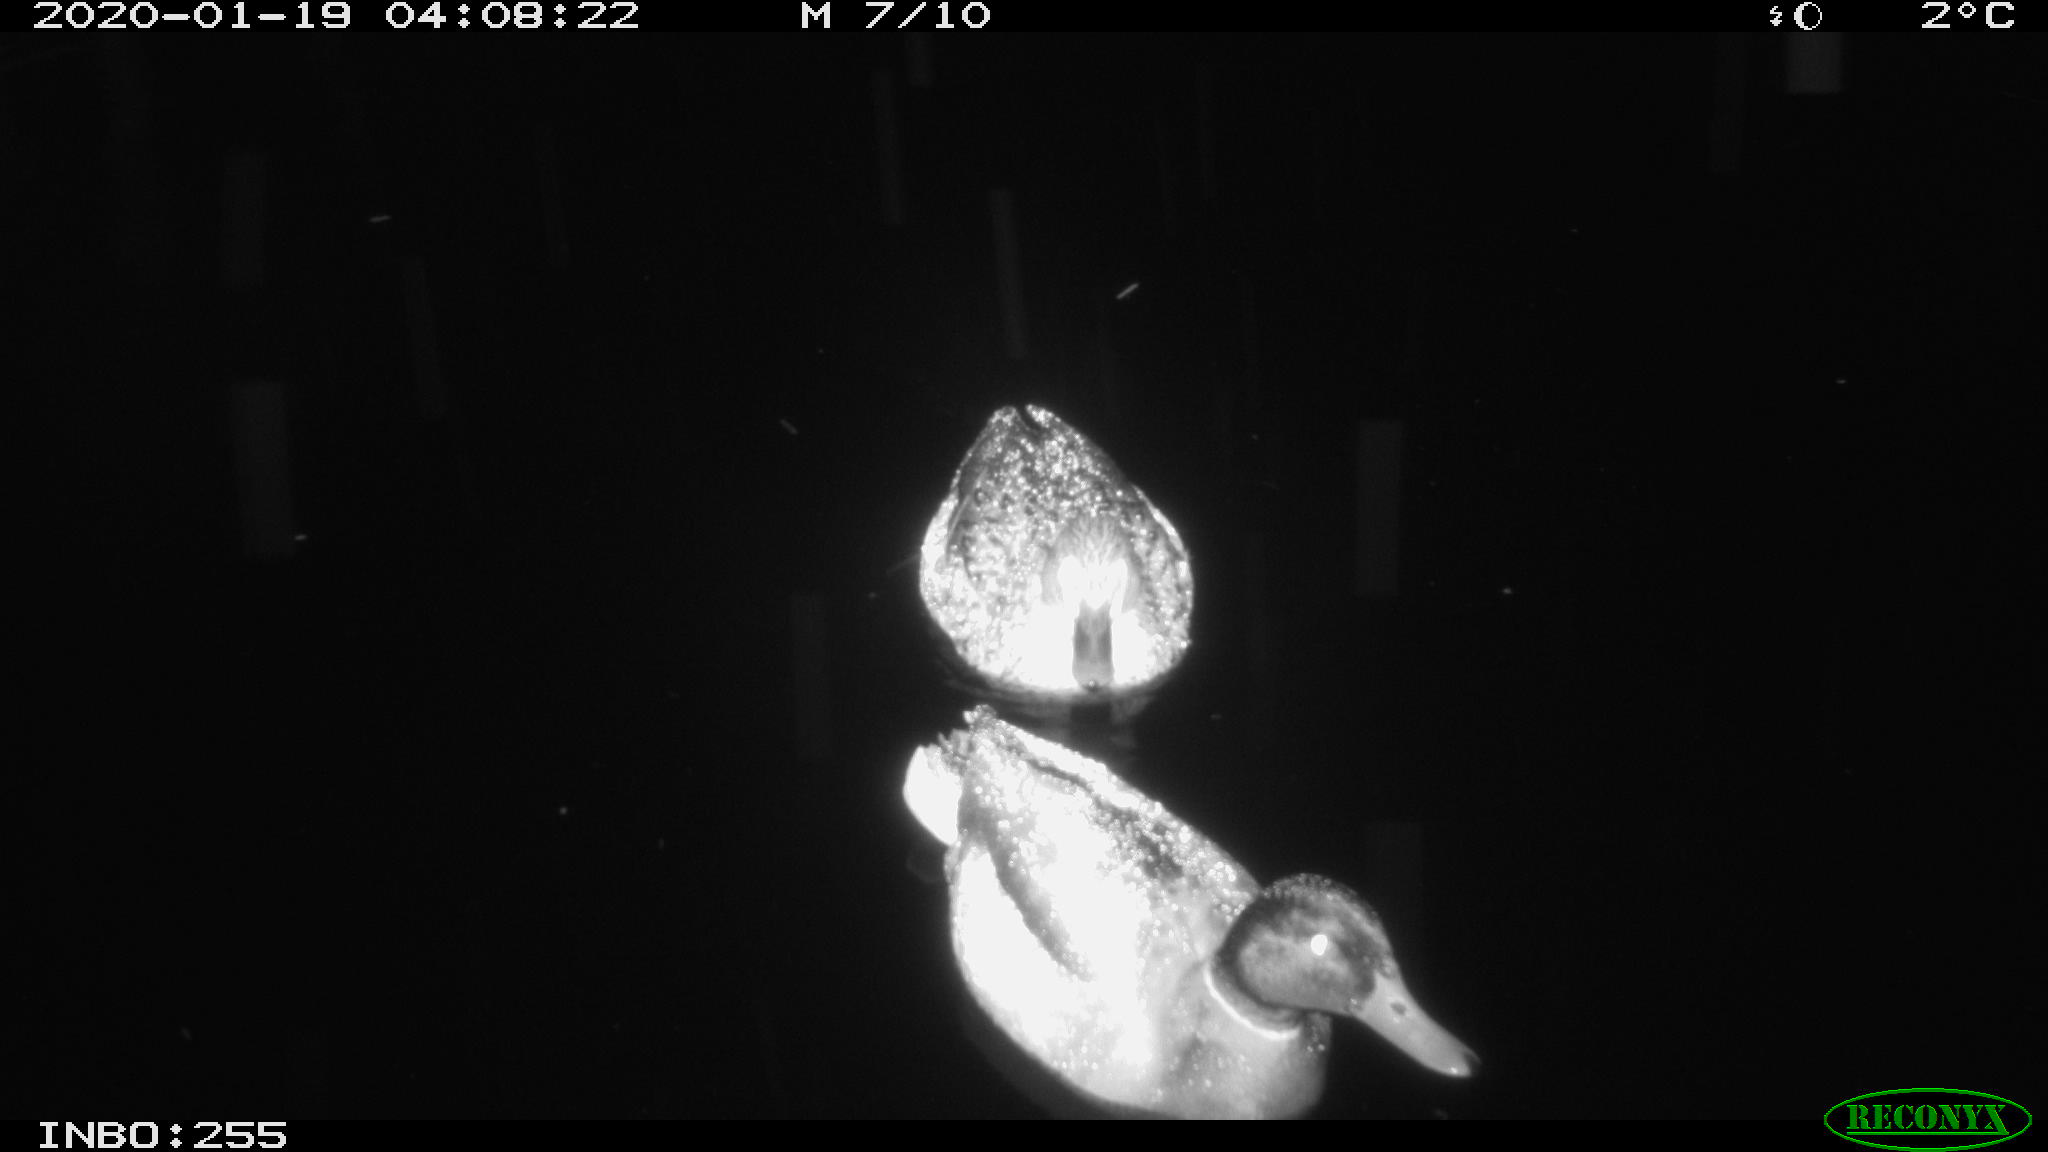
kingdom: Animalia
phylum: Chordata
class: Aves
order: Anseriformes
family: Anatidae
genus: Anas
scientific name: Anas platyrhynchos
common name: Mallard
